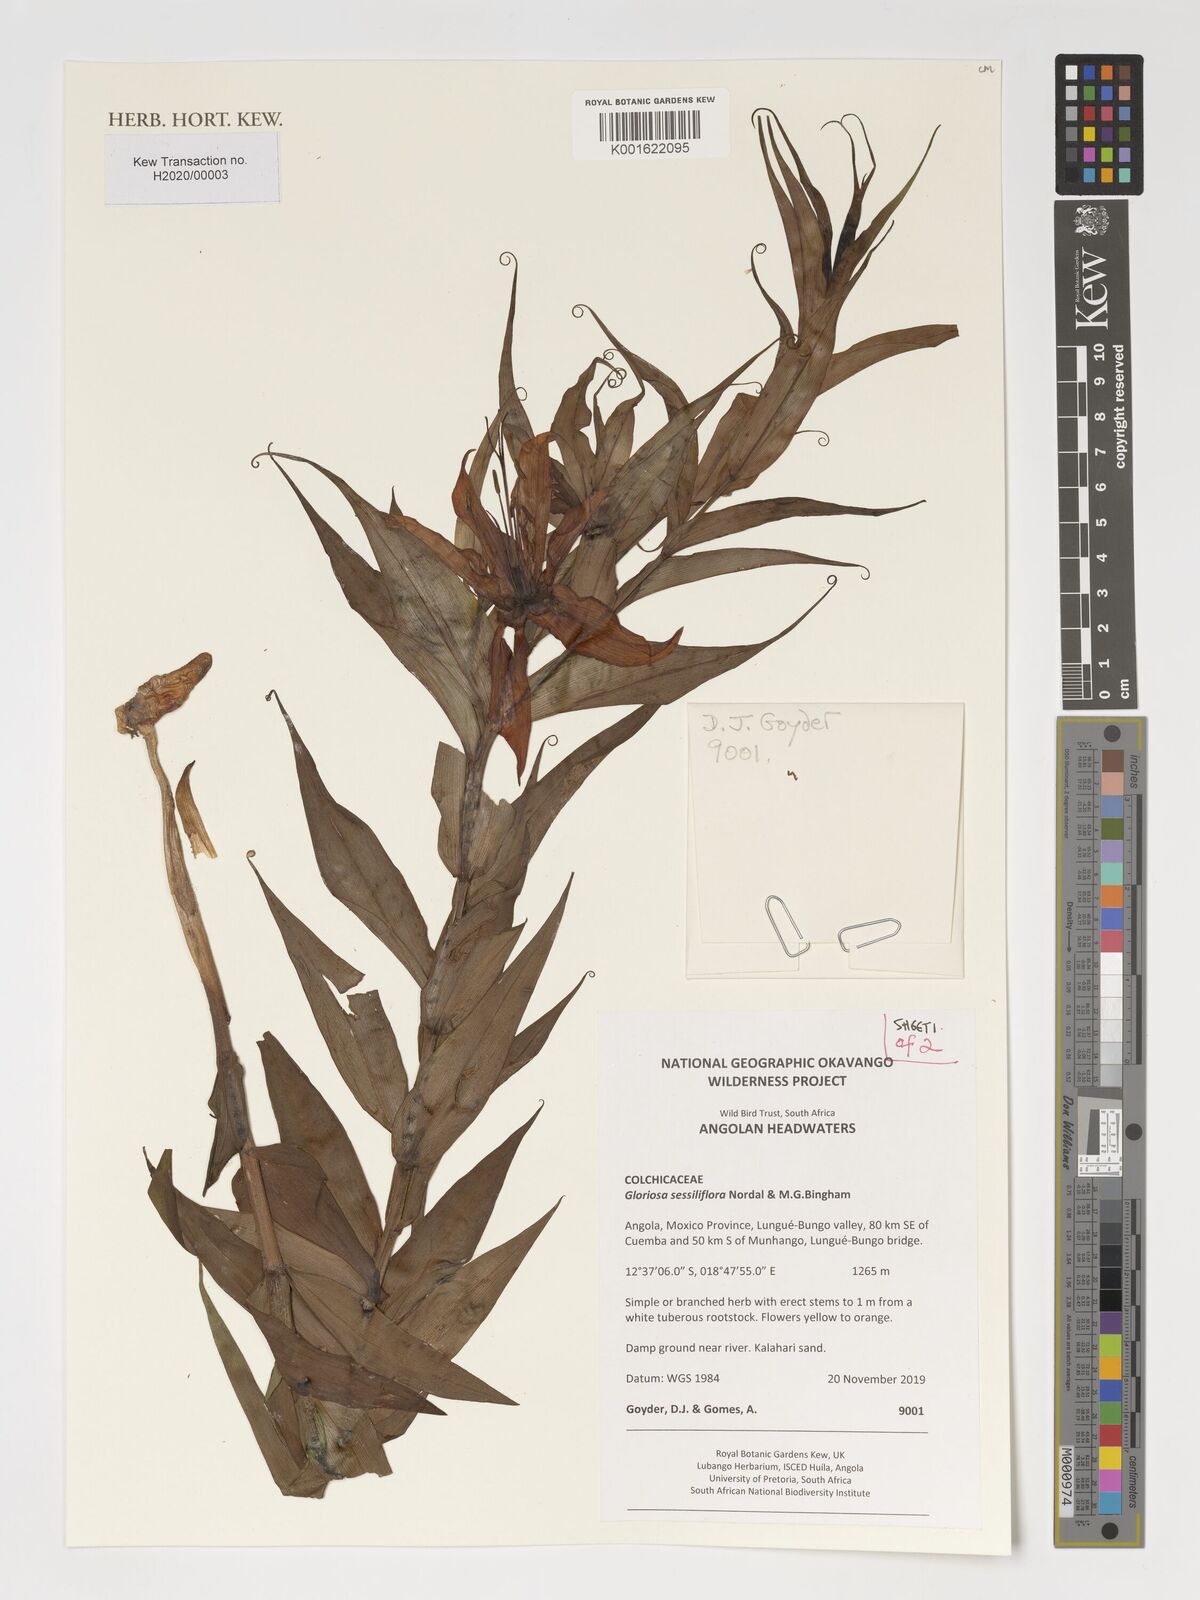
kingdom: Plantae
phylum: Tracheophyta
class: Liliopsida
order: Liliales
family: Colchicaceae
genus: Gloriosa
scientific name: Gloriosa sessiliflora
